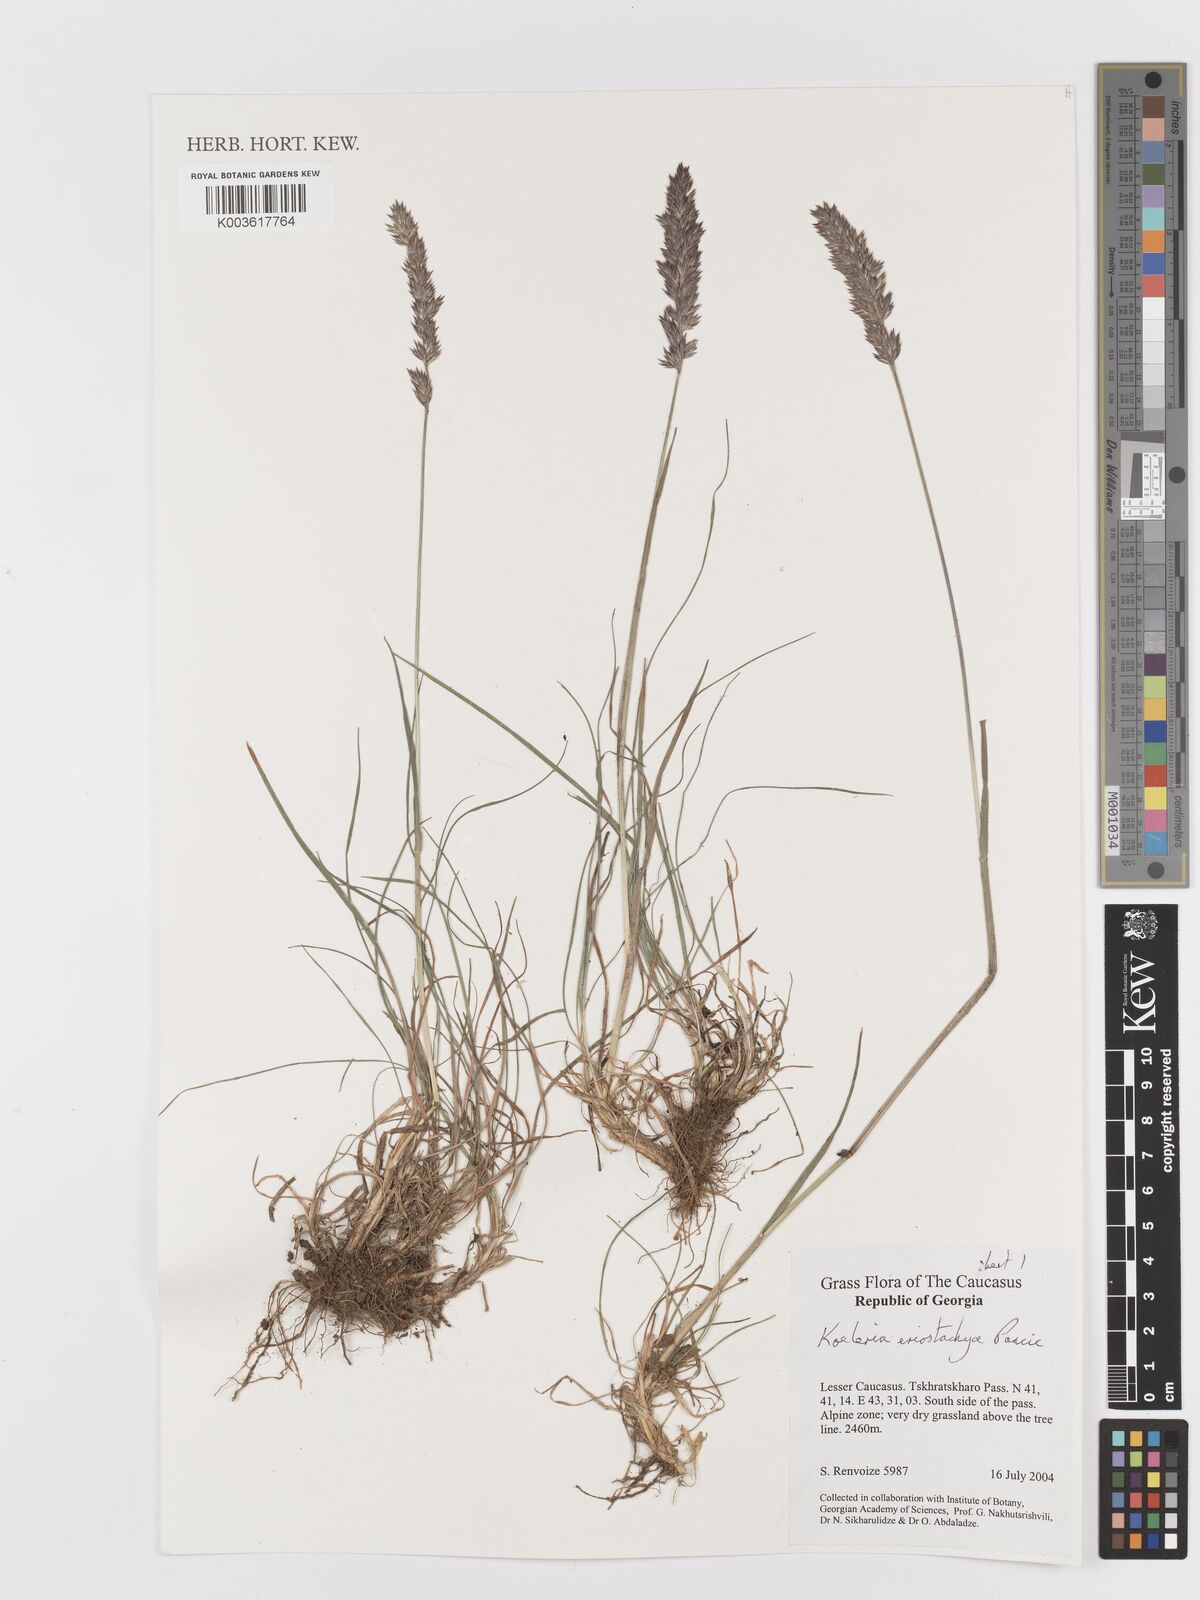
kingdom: Plantae
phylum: Tracheophyta
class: Liliopsida
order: Poales
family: Poaceae
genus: Koeleria
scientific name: Koeleria eriostachya
